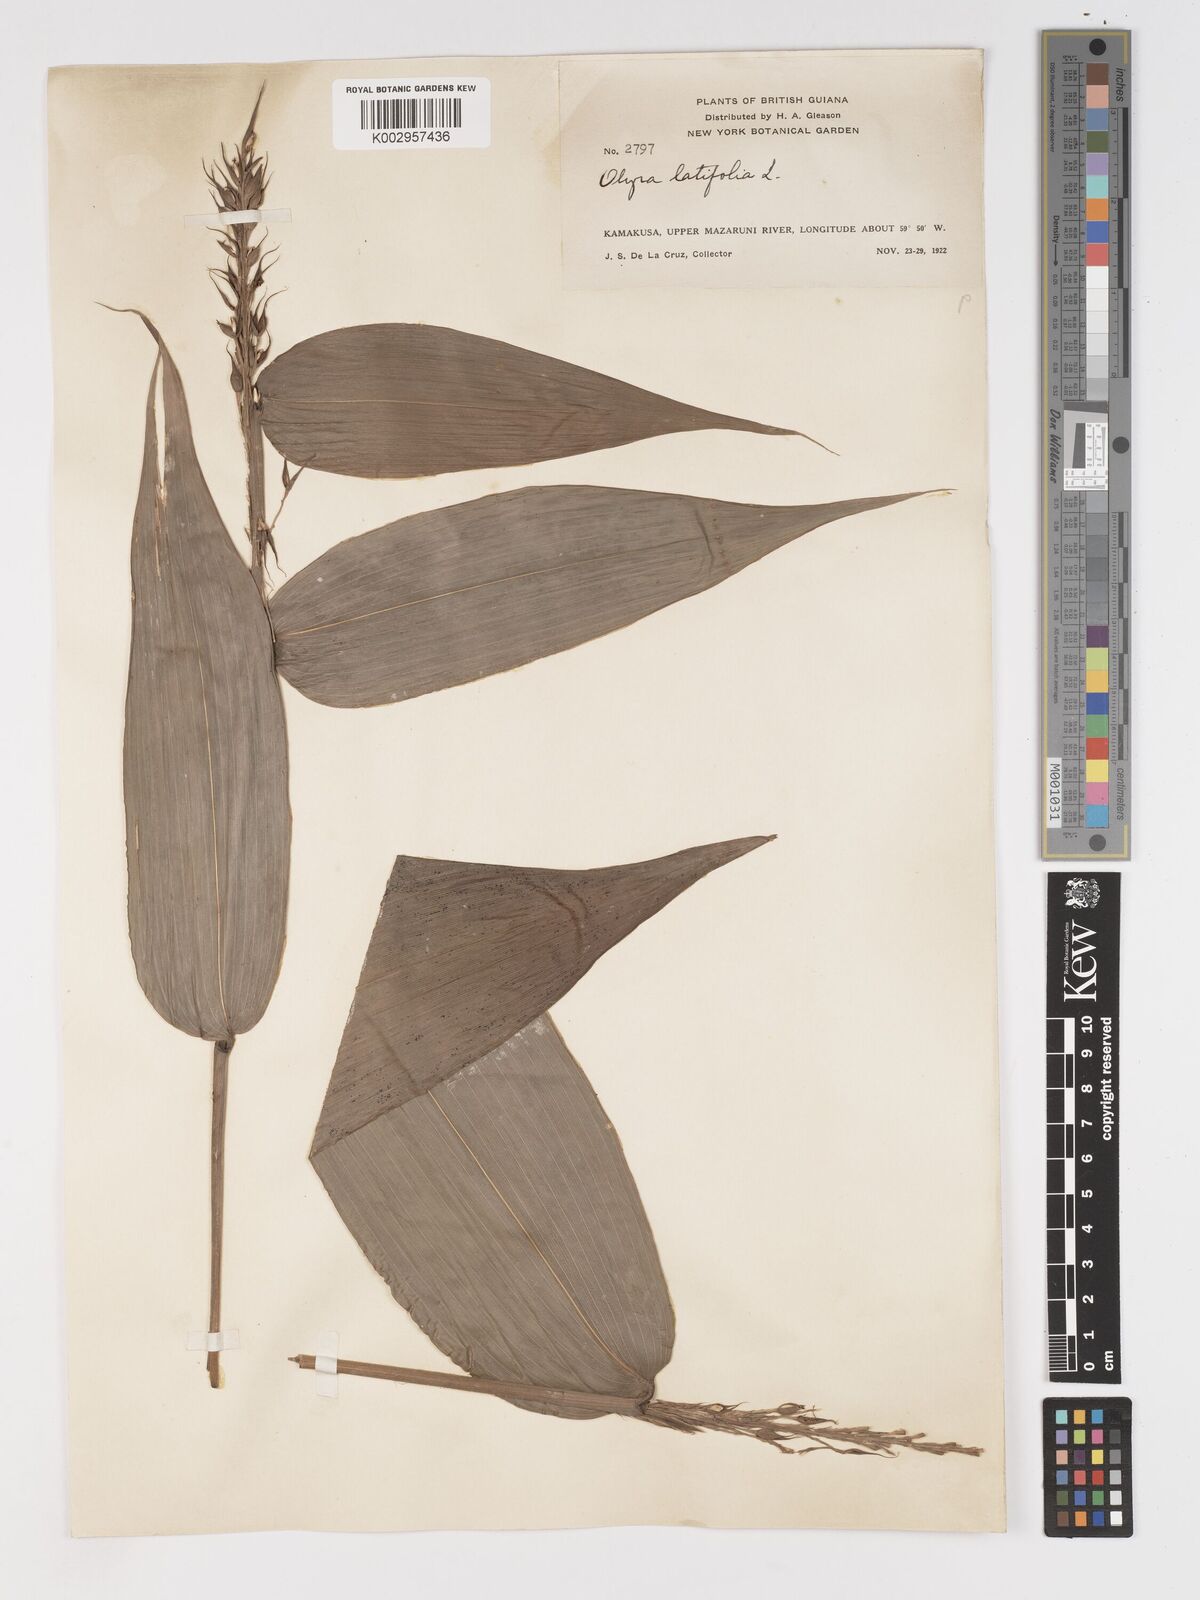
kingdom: Plantae
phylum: Tracheophyta
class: Liliopsida
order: Poales
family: Poaceae
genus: Olyra
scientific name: Olyra latifolia
